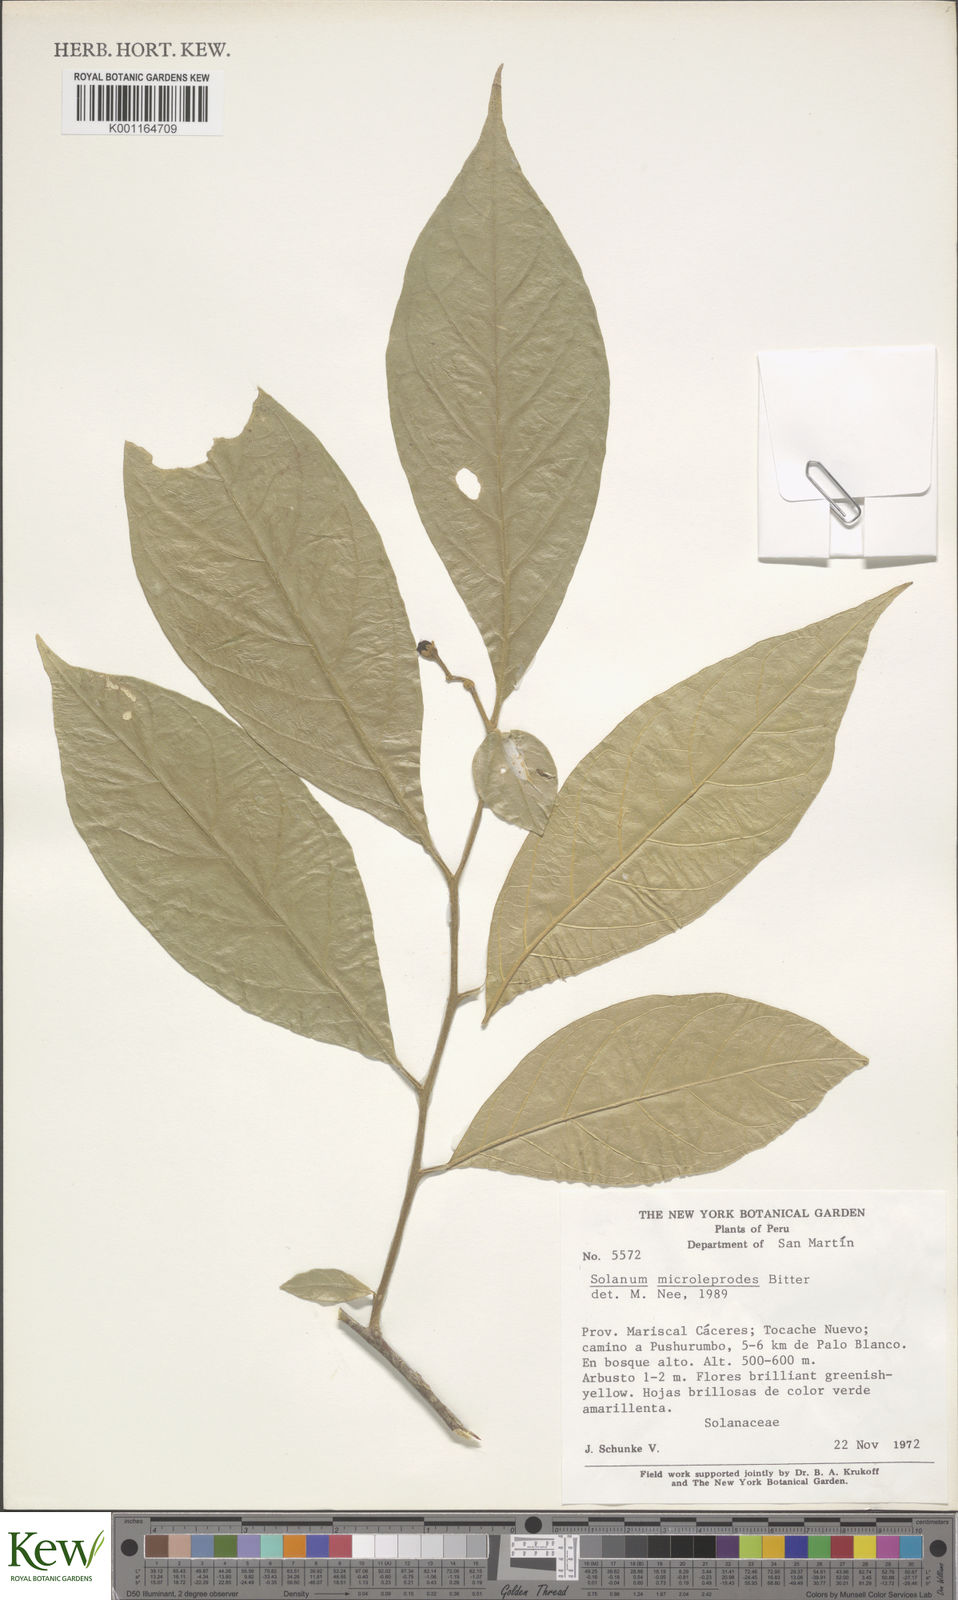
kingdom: Plantae
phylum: Tracheophyta
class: Magnoliopsida
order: Solanales
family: Solanaceae
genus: Solanum
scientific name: Solanum microleprodes
